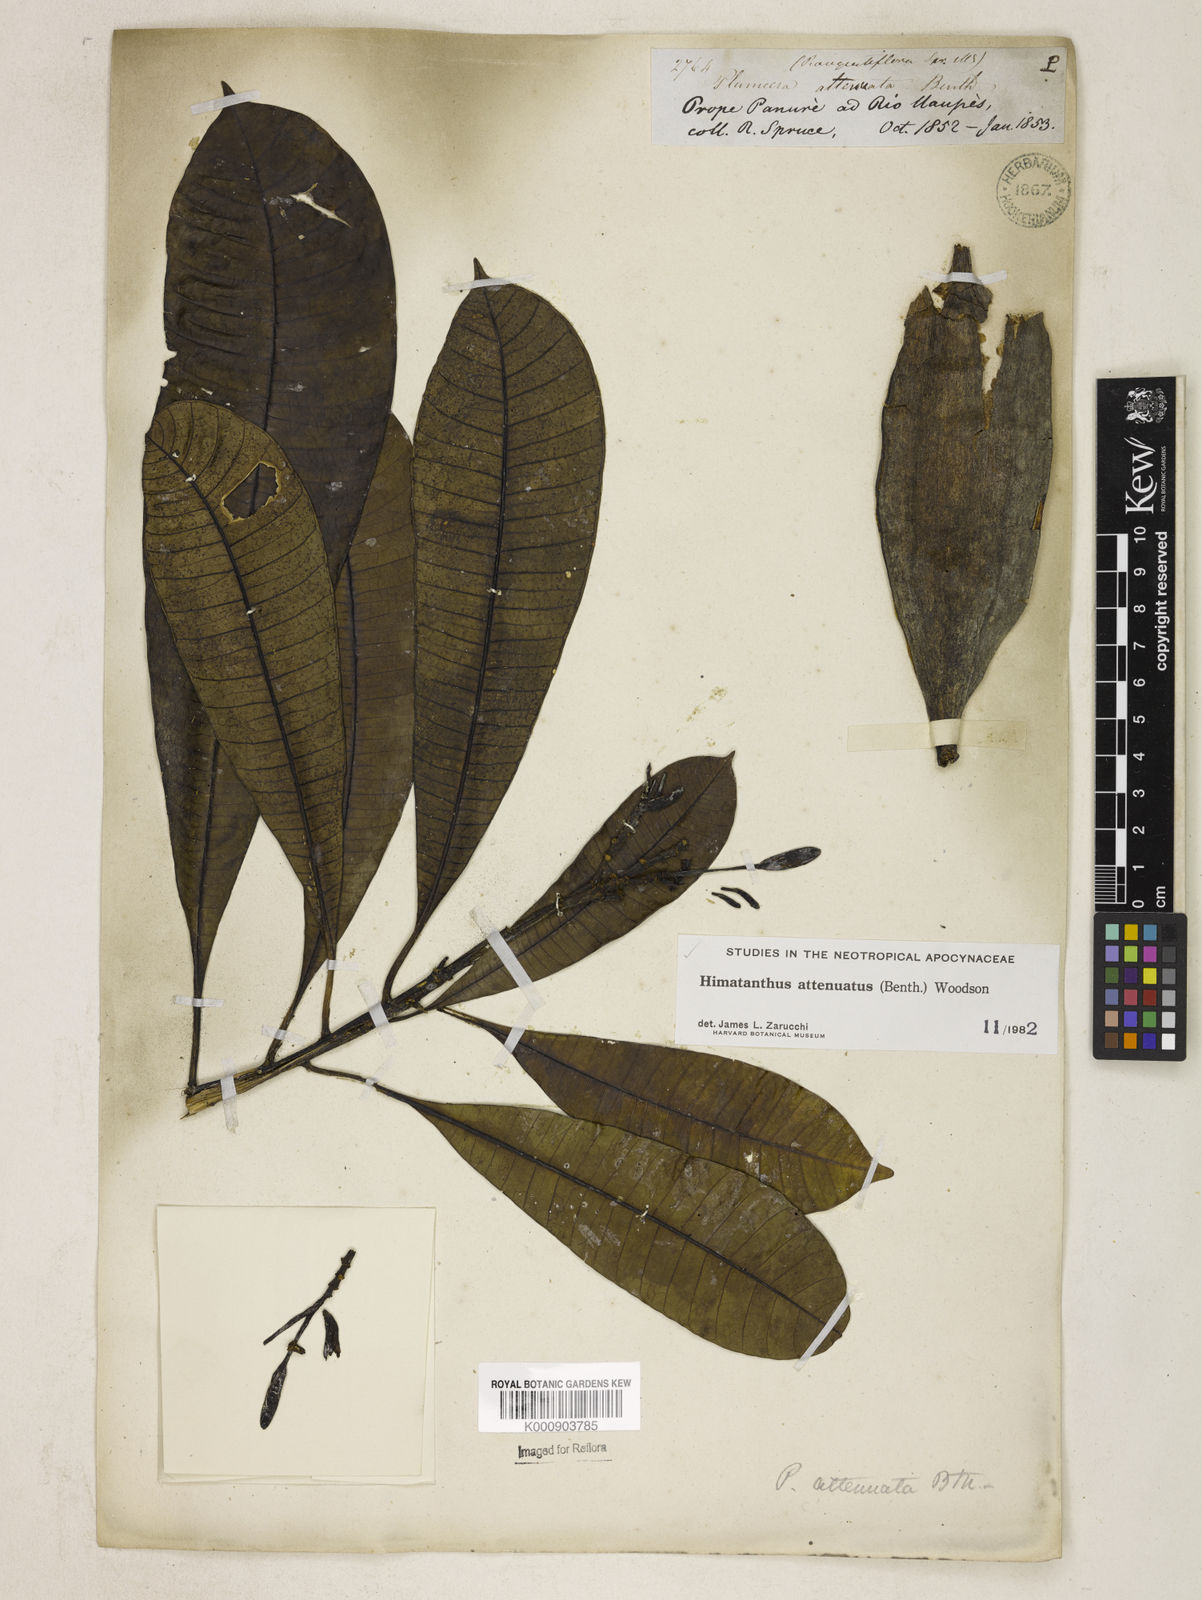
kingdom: Plantae
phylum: Tracheophyta
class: Magnoliopsida
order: Gentianales
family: Apocynaceae
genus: Himatanthus
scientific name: Himatanthus attenuatus
